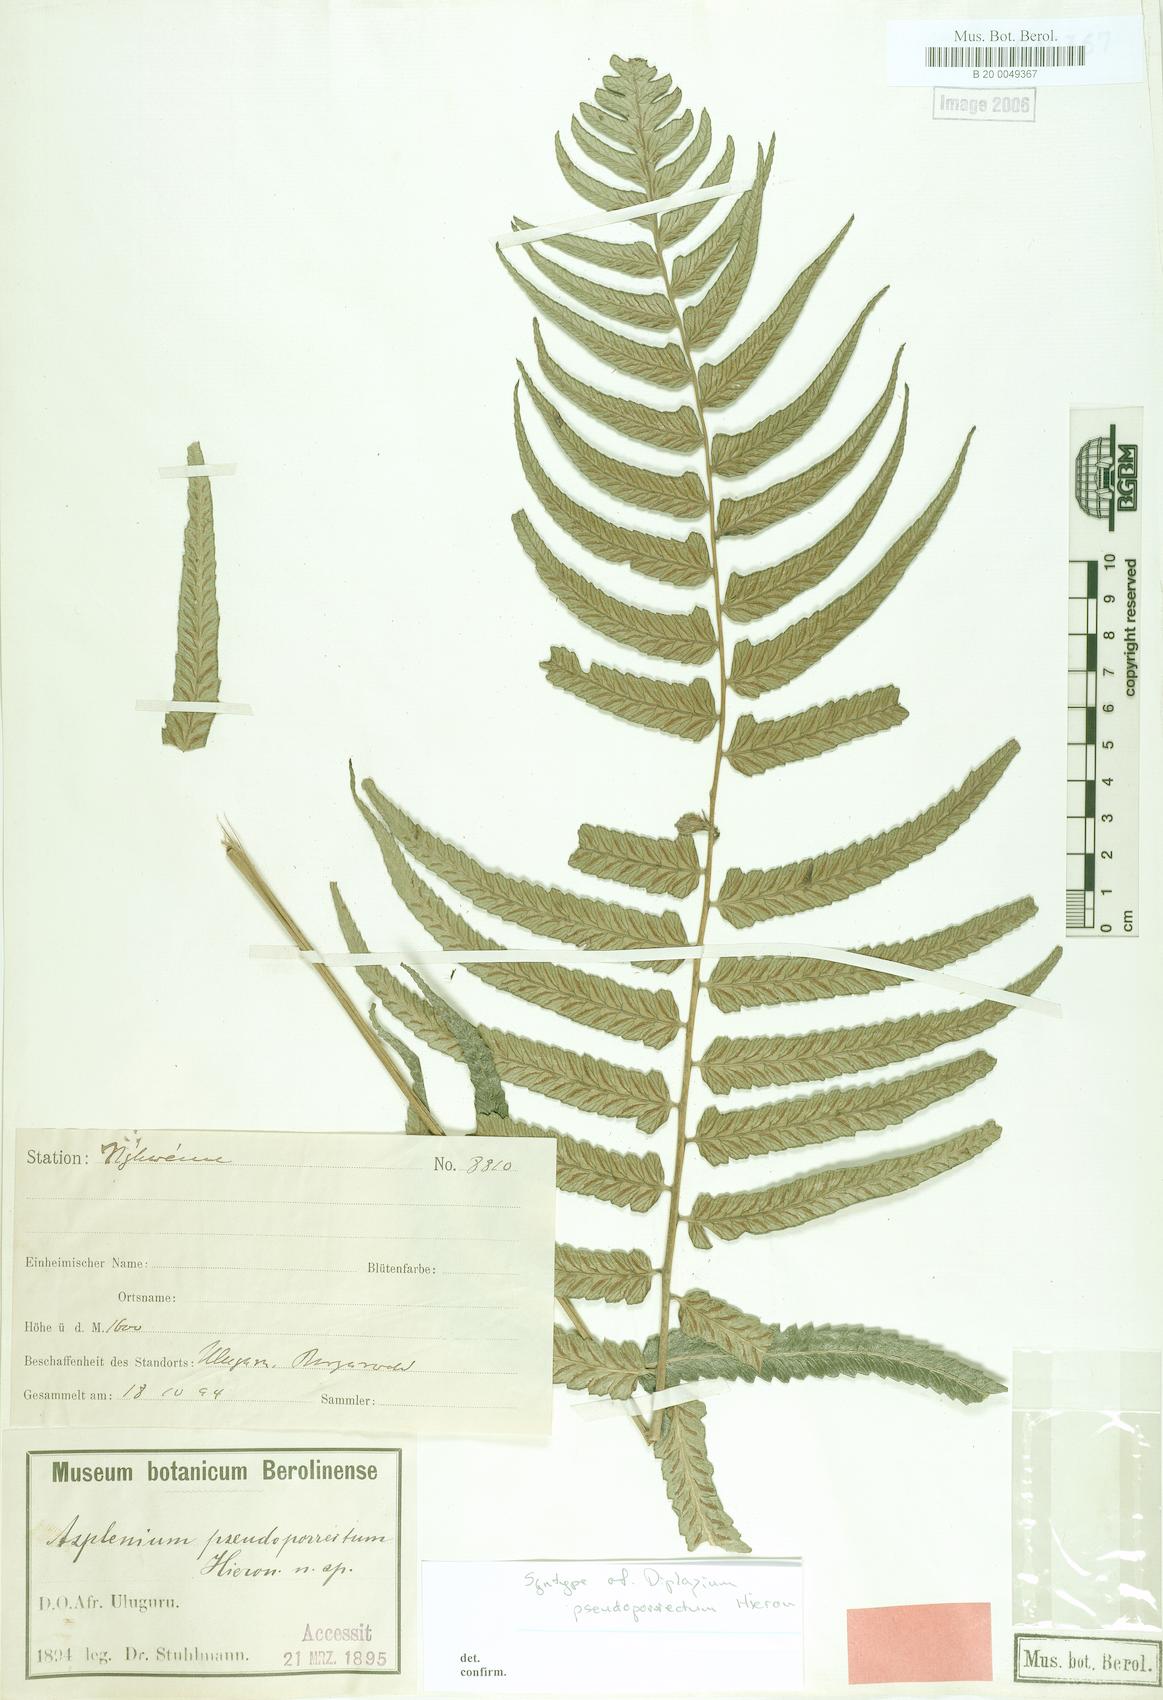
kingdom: Plantae
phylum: Tracheophyta
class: Polypodiopsida
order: Polypodiales
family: Athyriaceae
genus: Diplazium
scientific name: Diplazium pseudoporrectum
